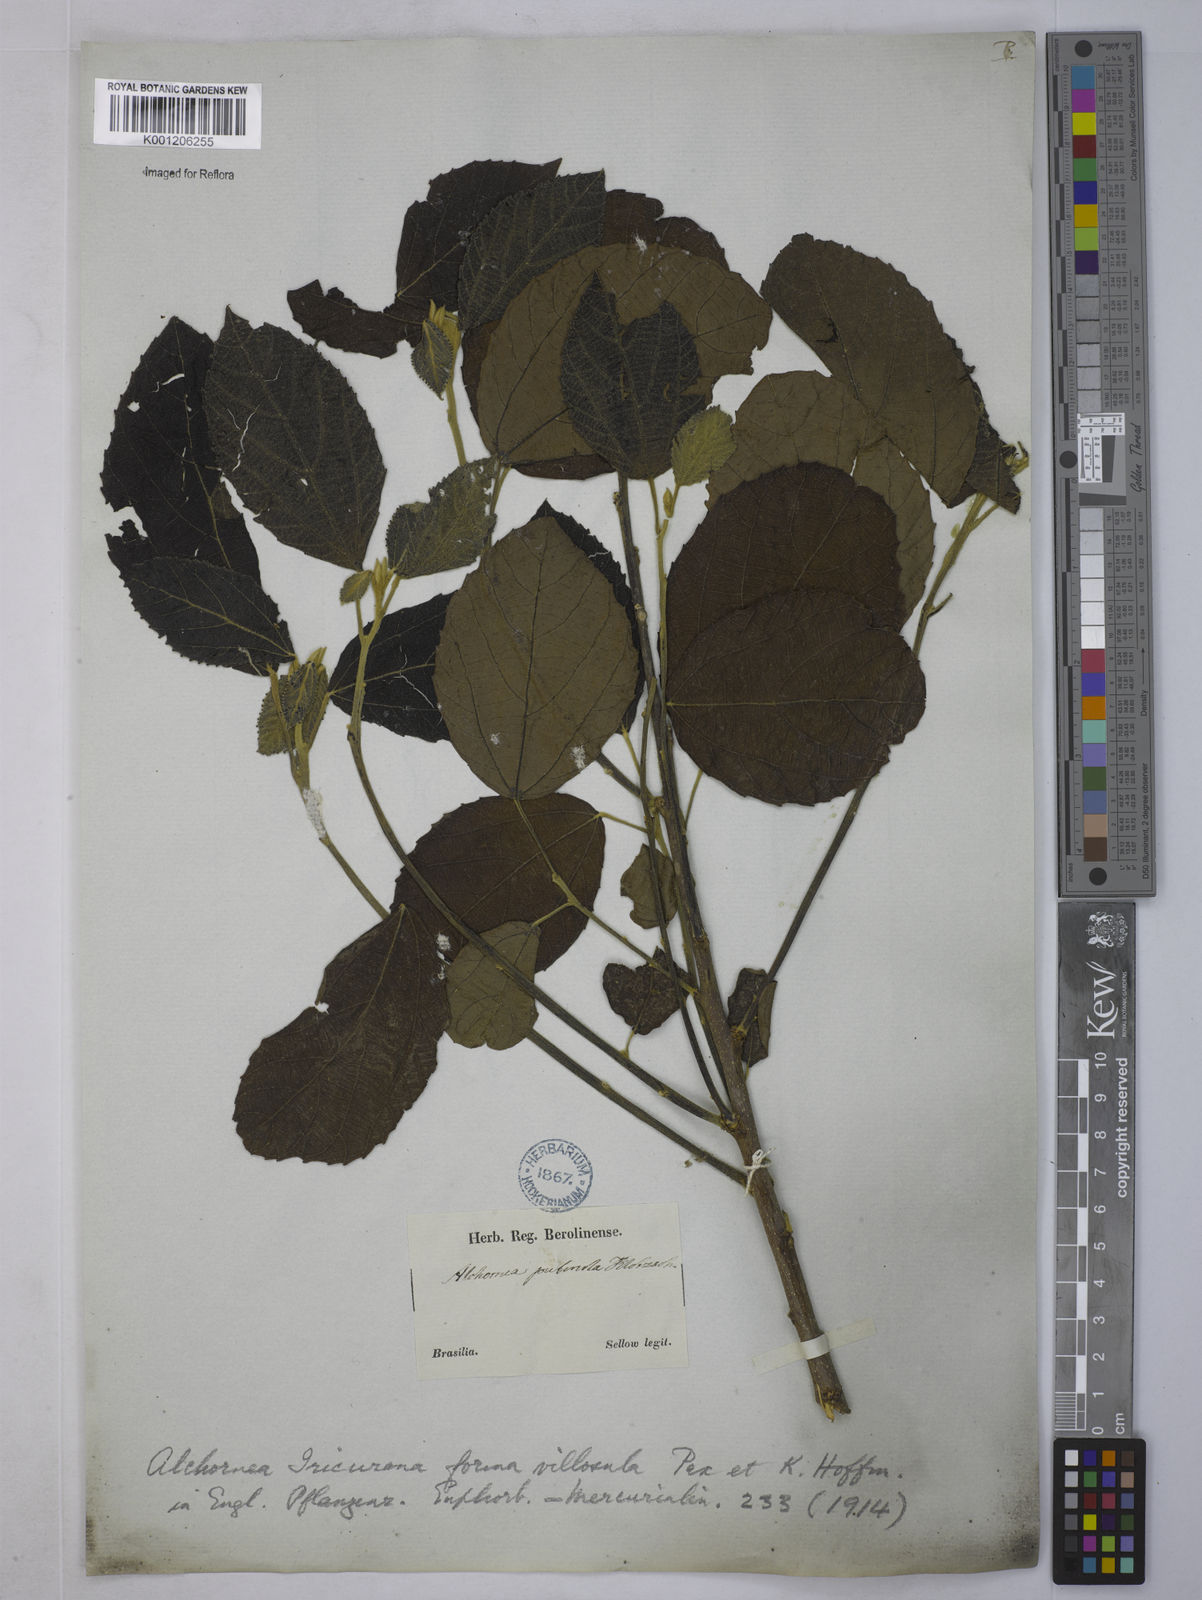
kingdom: Plantae
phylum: Tracheophyta
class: Magnoliopsida
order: Malpighiales
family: Euphorbiaceae
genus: Alchornea
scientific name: Alchornea glandulosa
